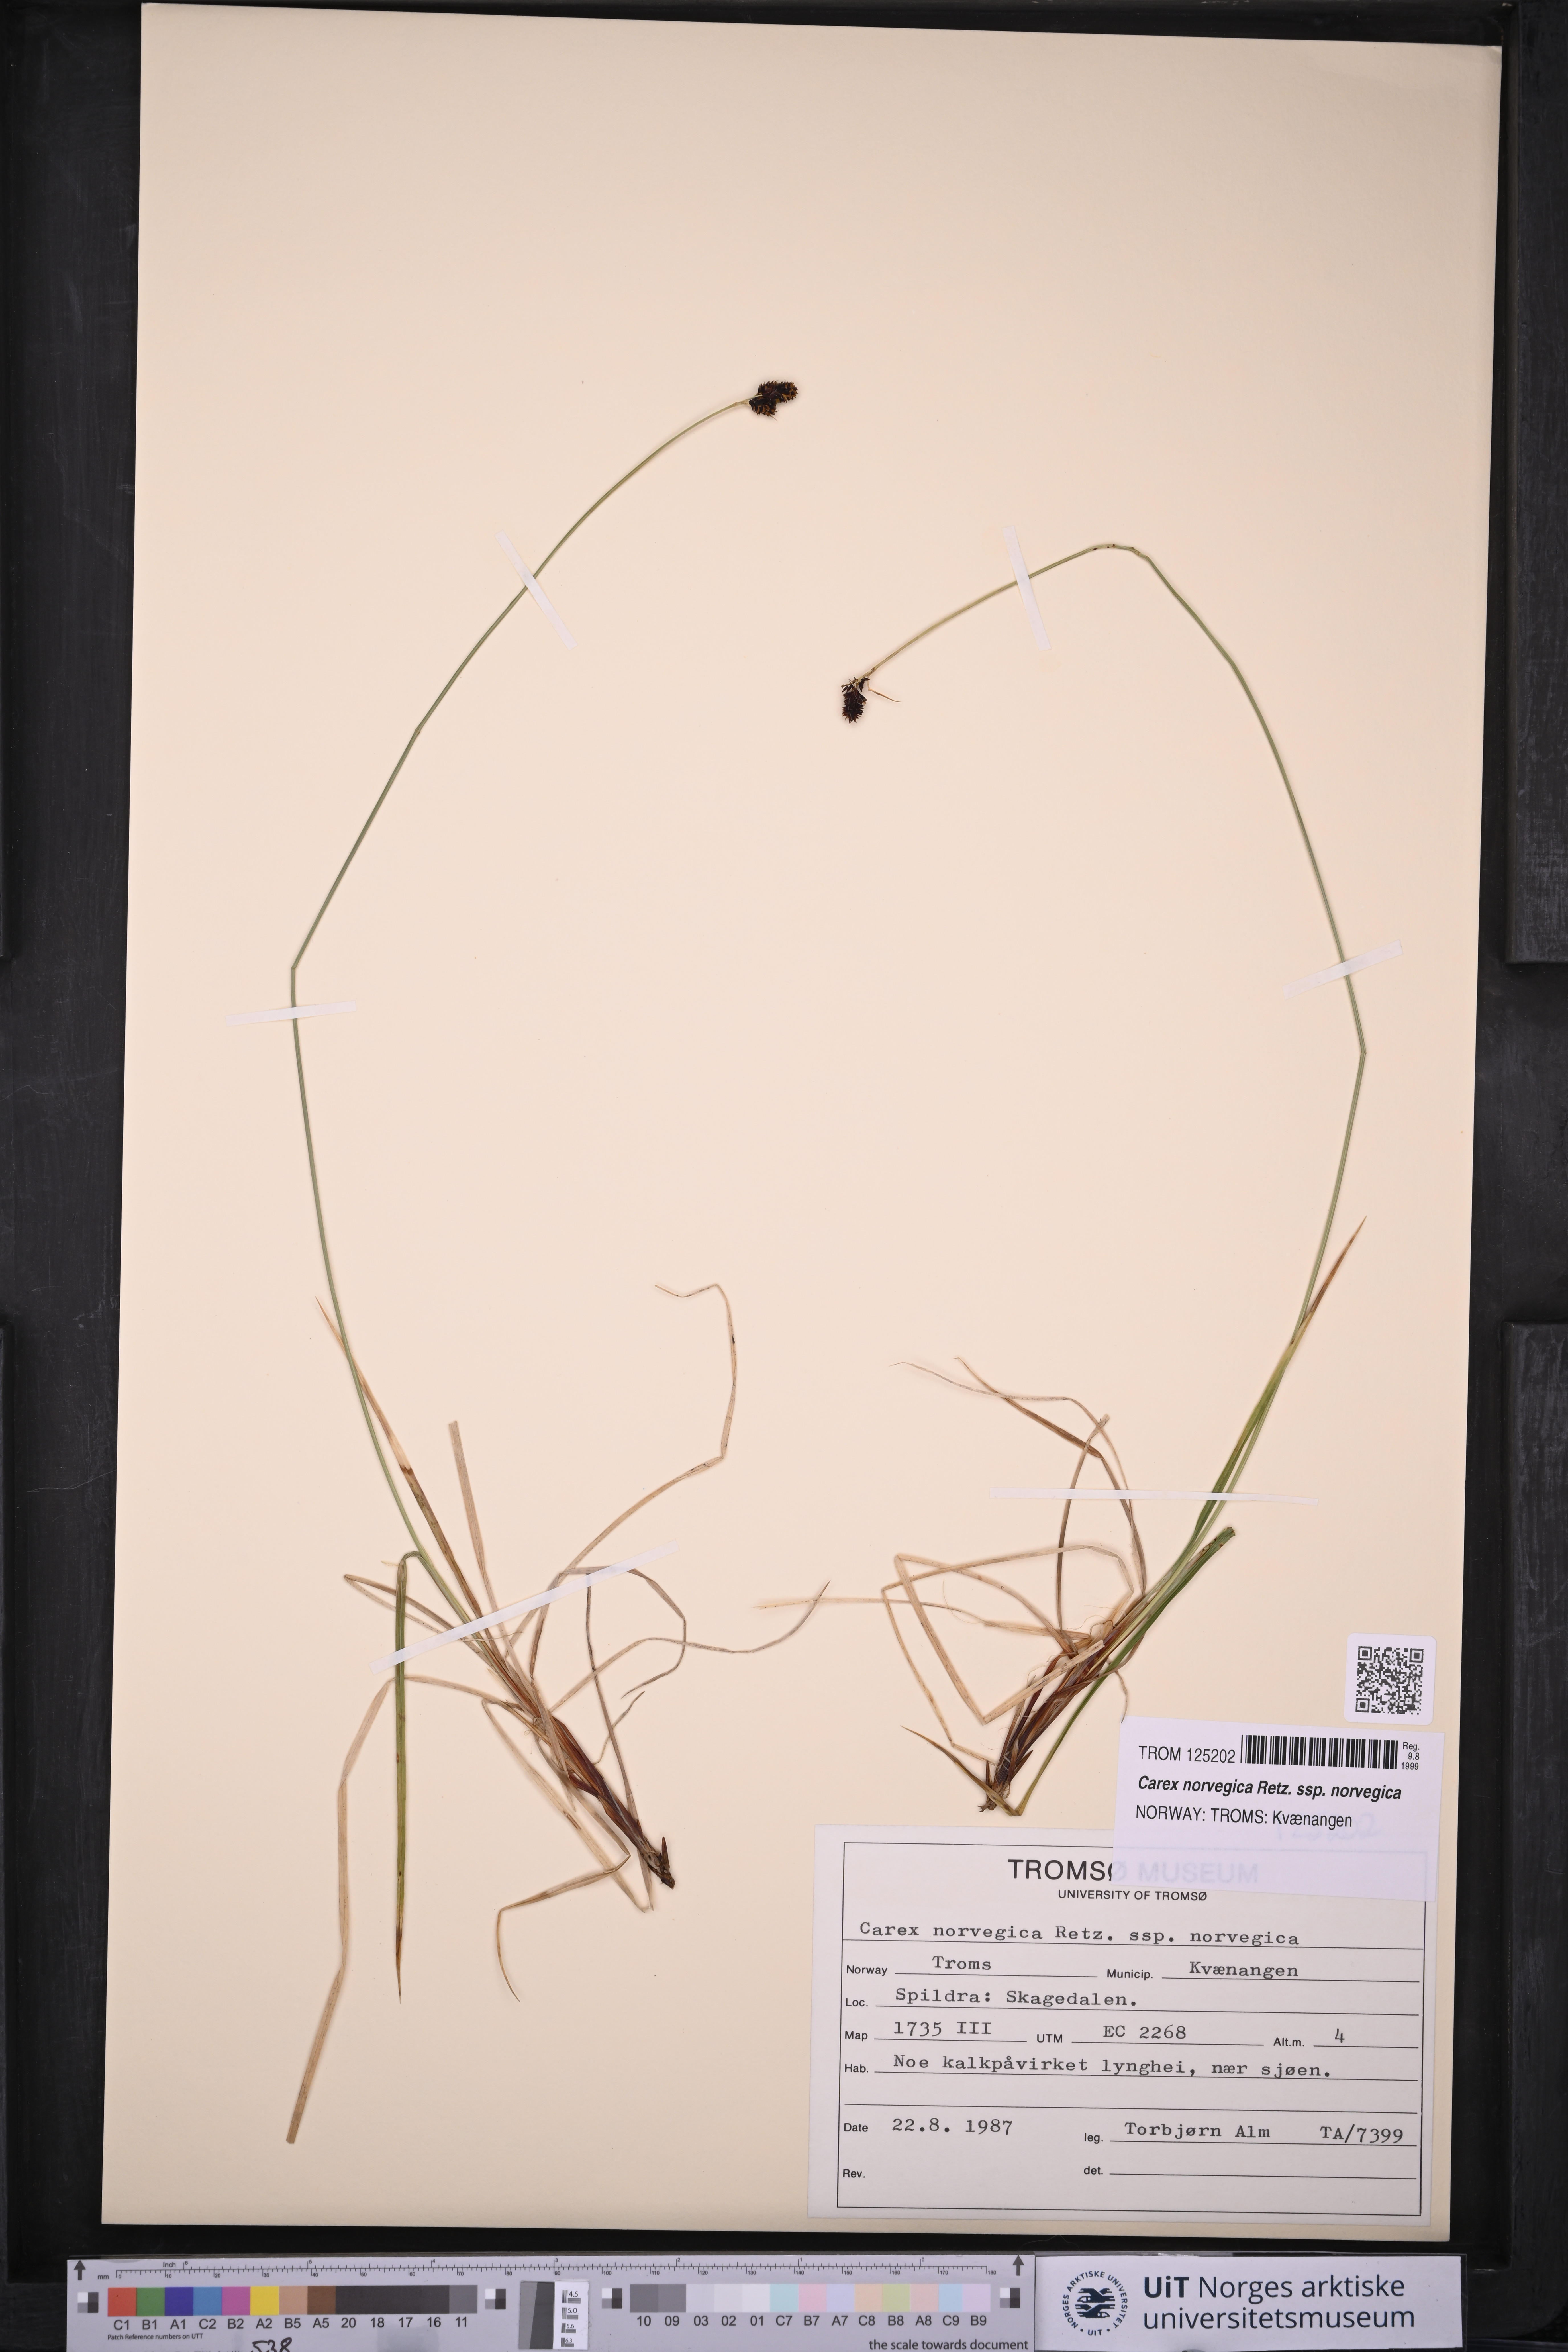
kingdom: Plantae
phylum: Tracheophyta
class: Liliopsida
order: Poales
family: Cyperaceae
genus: Carex
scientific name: Carex norvegica
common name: Close-headed alpine-sedge
